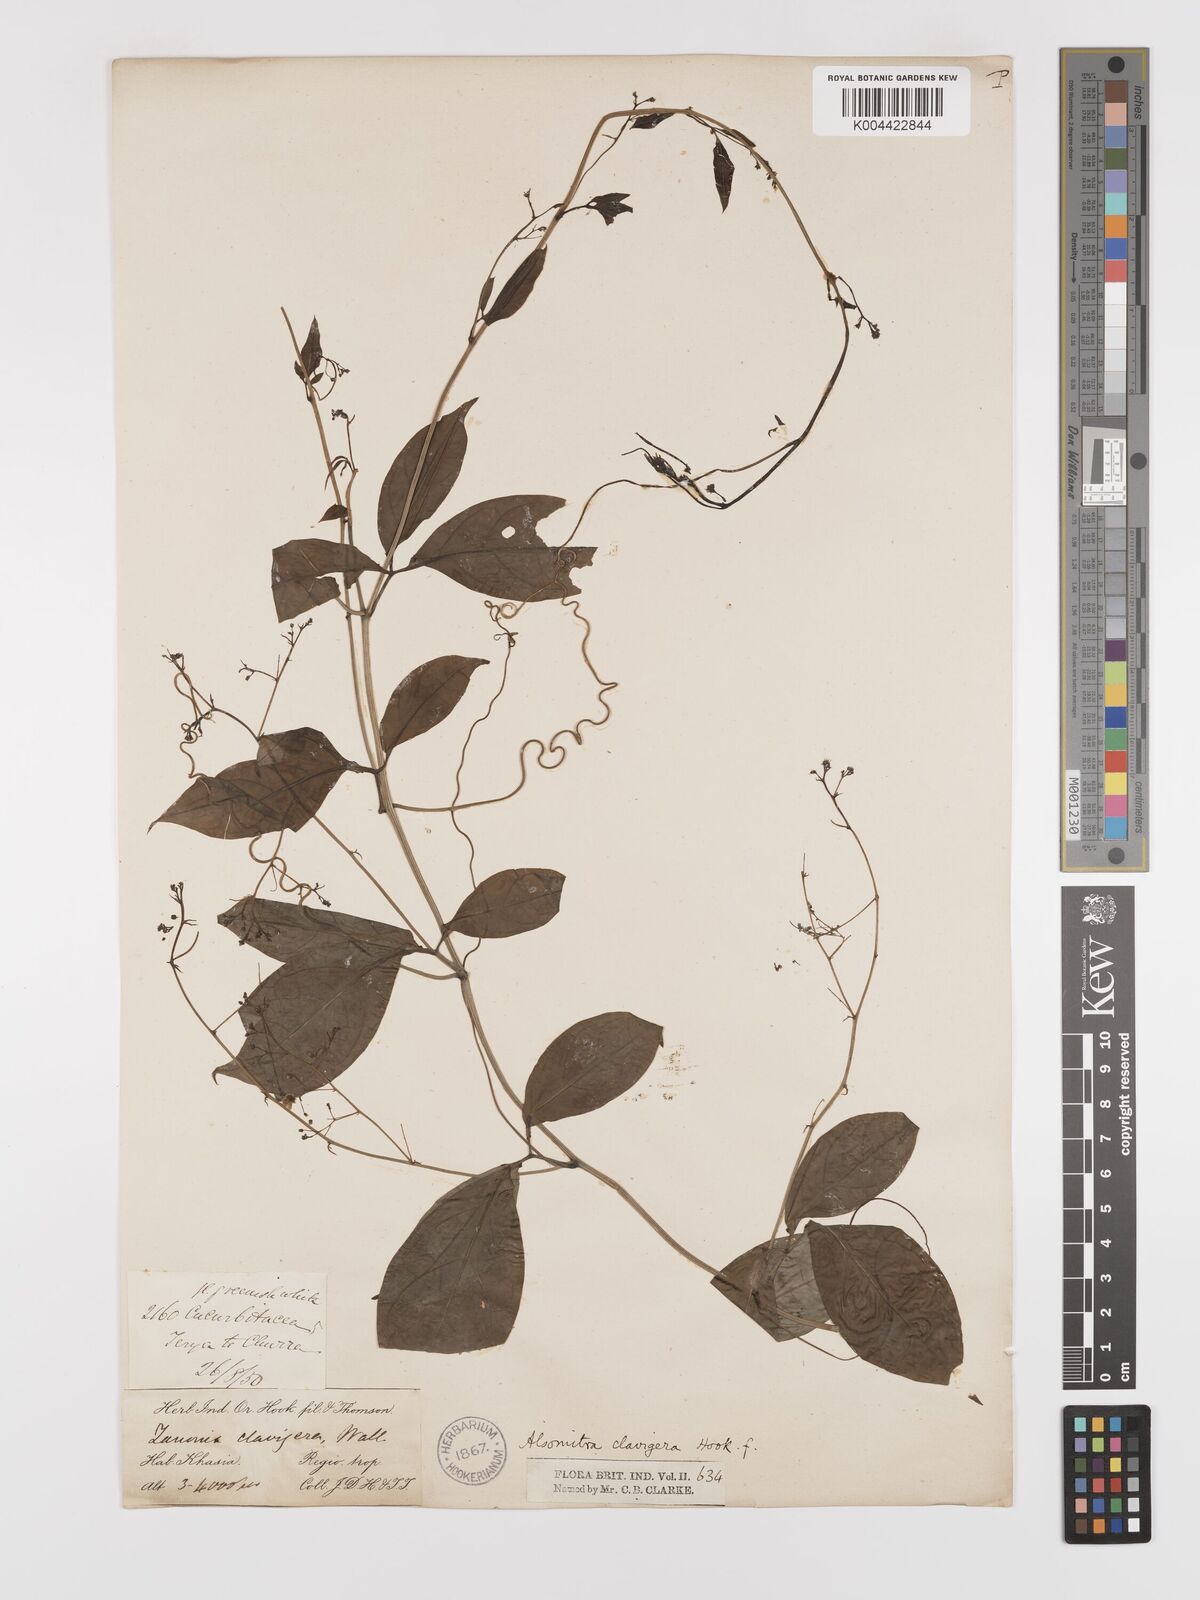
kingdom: Plantae
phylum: Tracheophyta
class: Magnoliopsida
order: Cucurbitales
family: Cucurbitaceae
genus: Neoalsomitra
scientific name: Neoalsomitra
